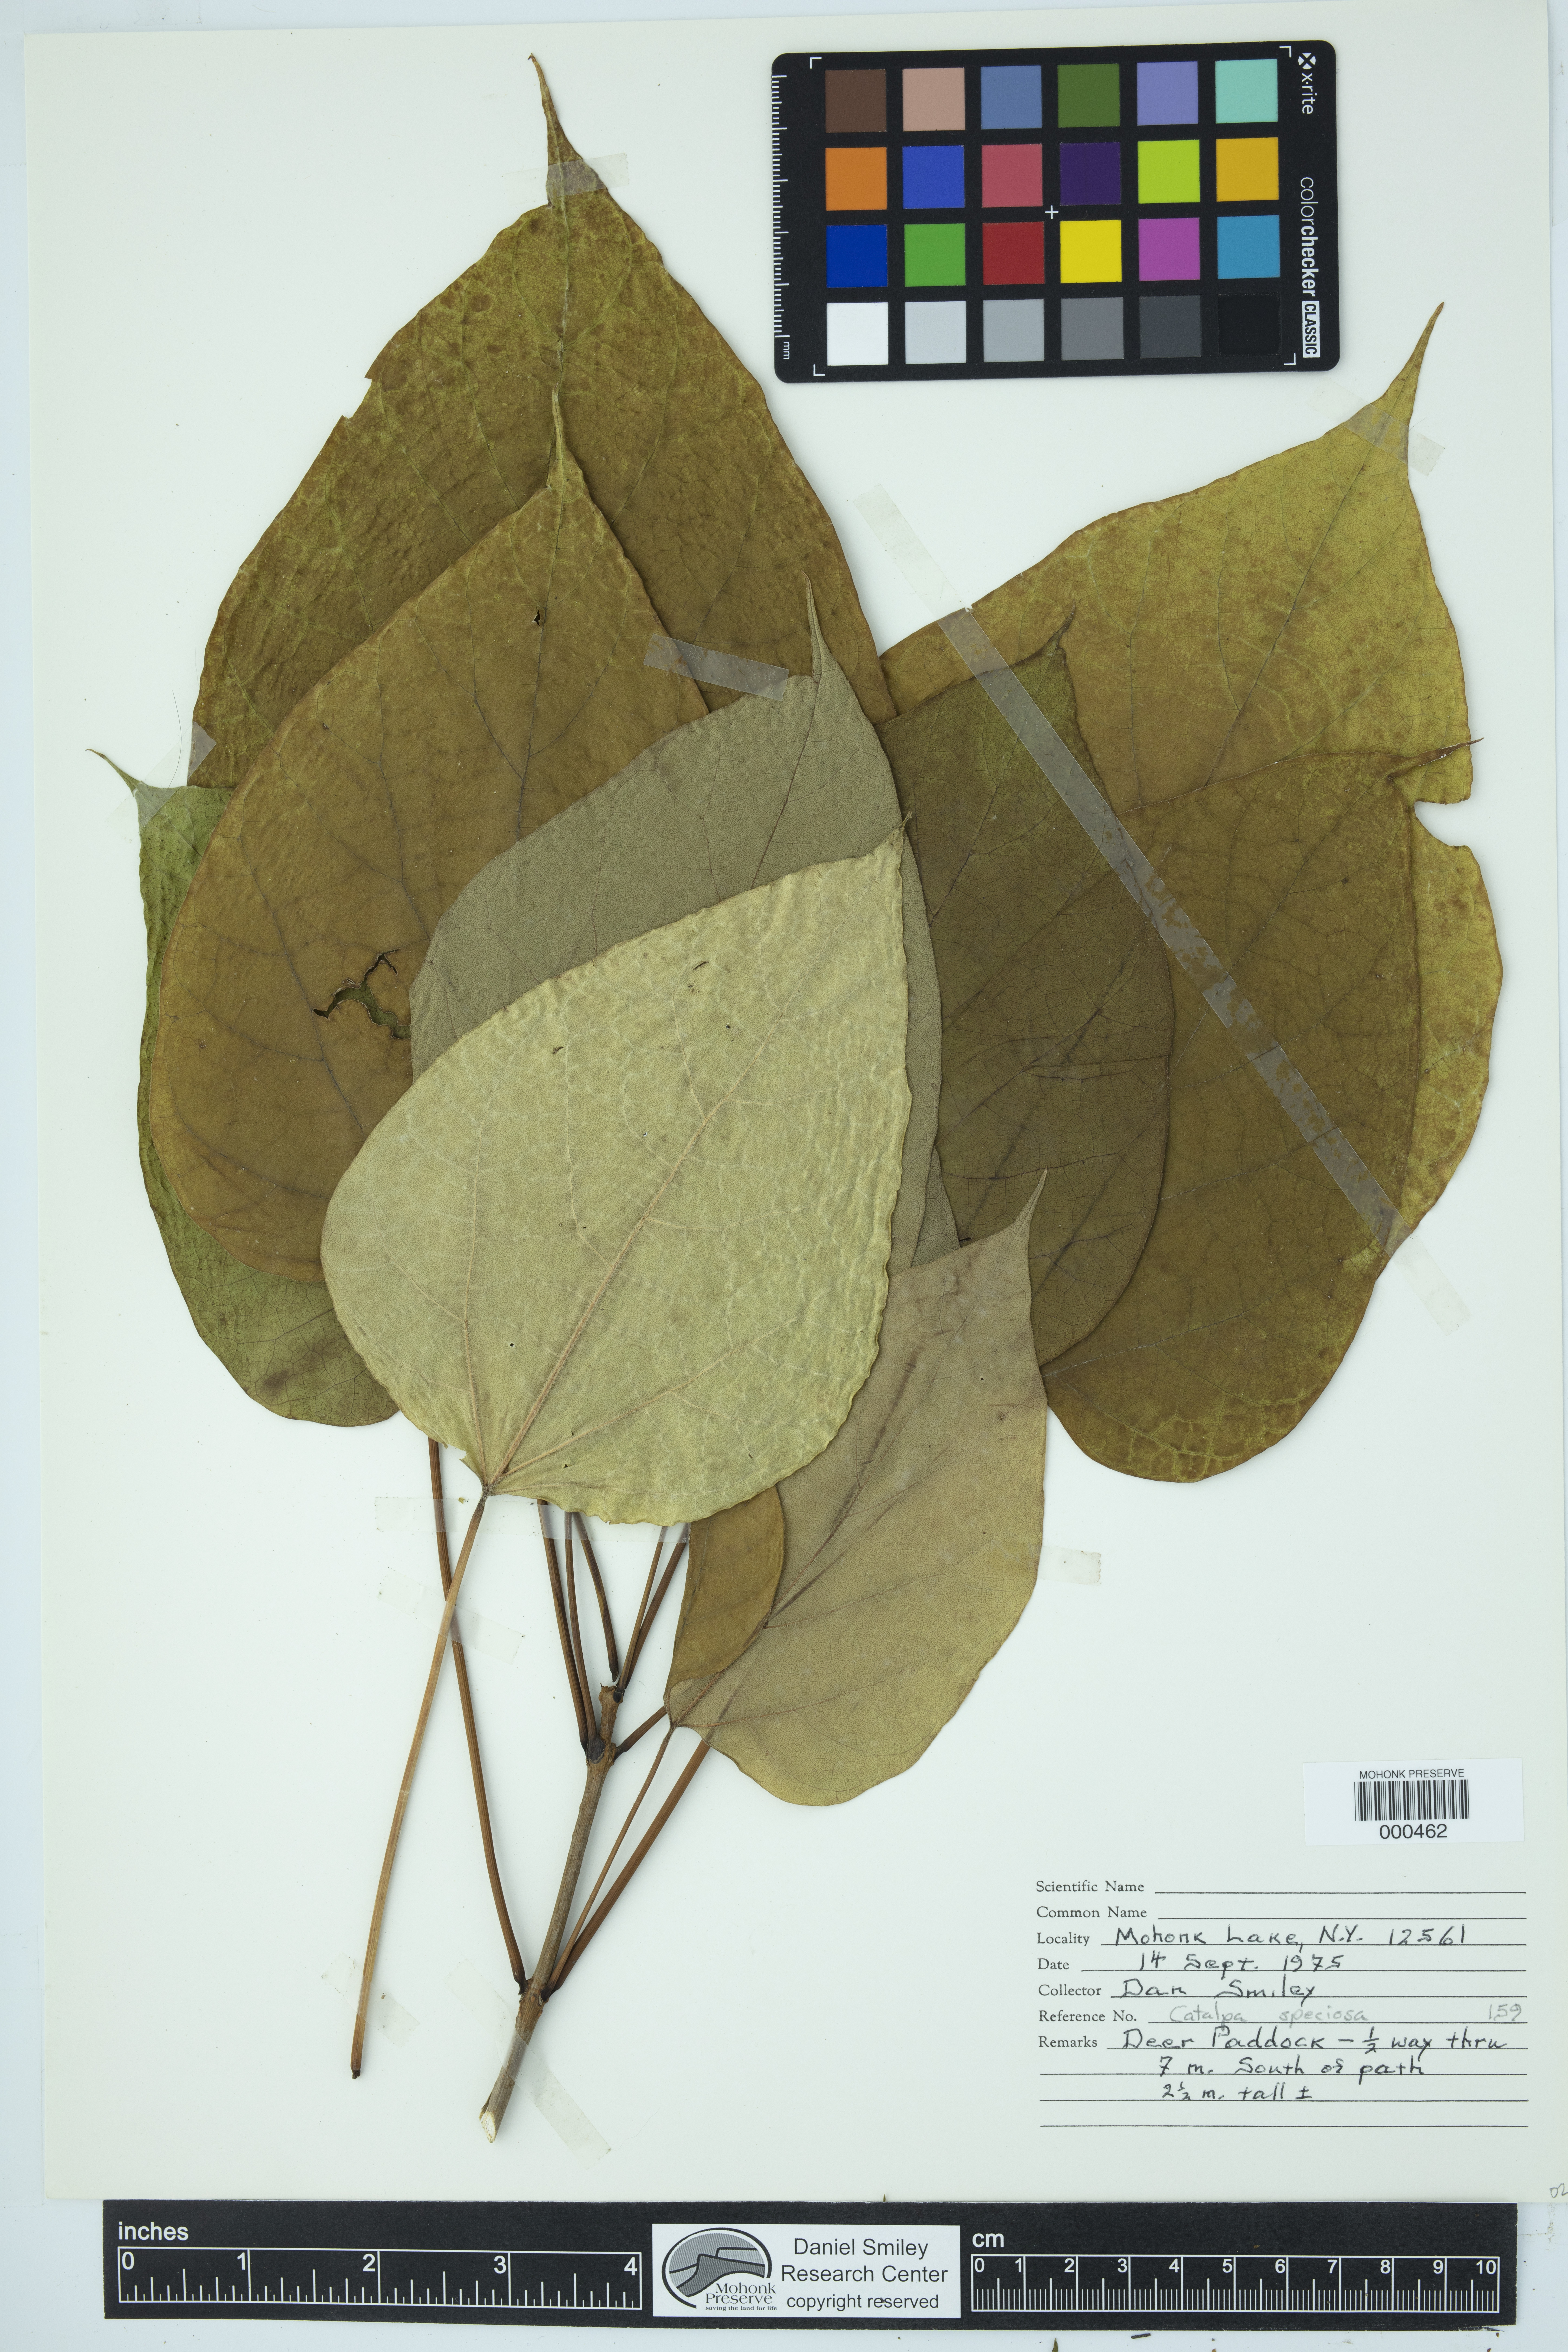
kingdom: Plantae
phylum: Tracheophyta
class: Magnoliopsida
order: Lamiales
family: Bignoniaceae
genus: Catalpa
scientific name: Catalpa speciosa
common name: Northern catalpa
